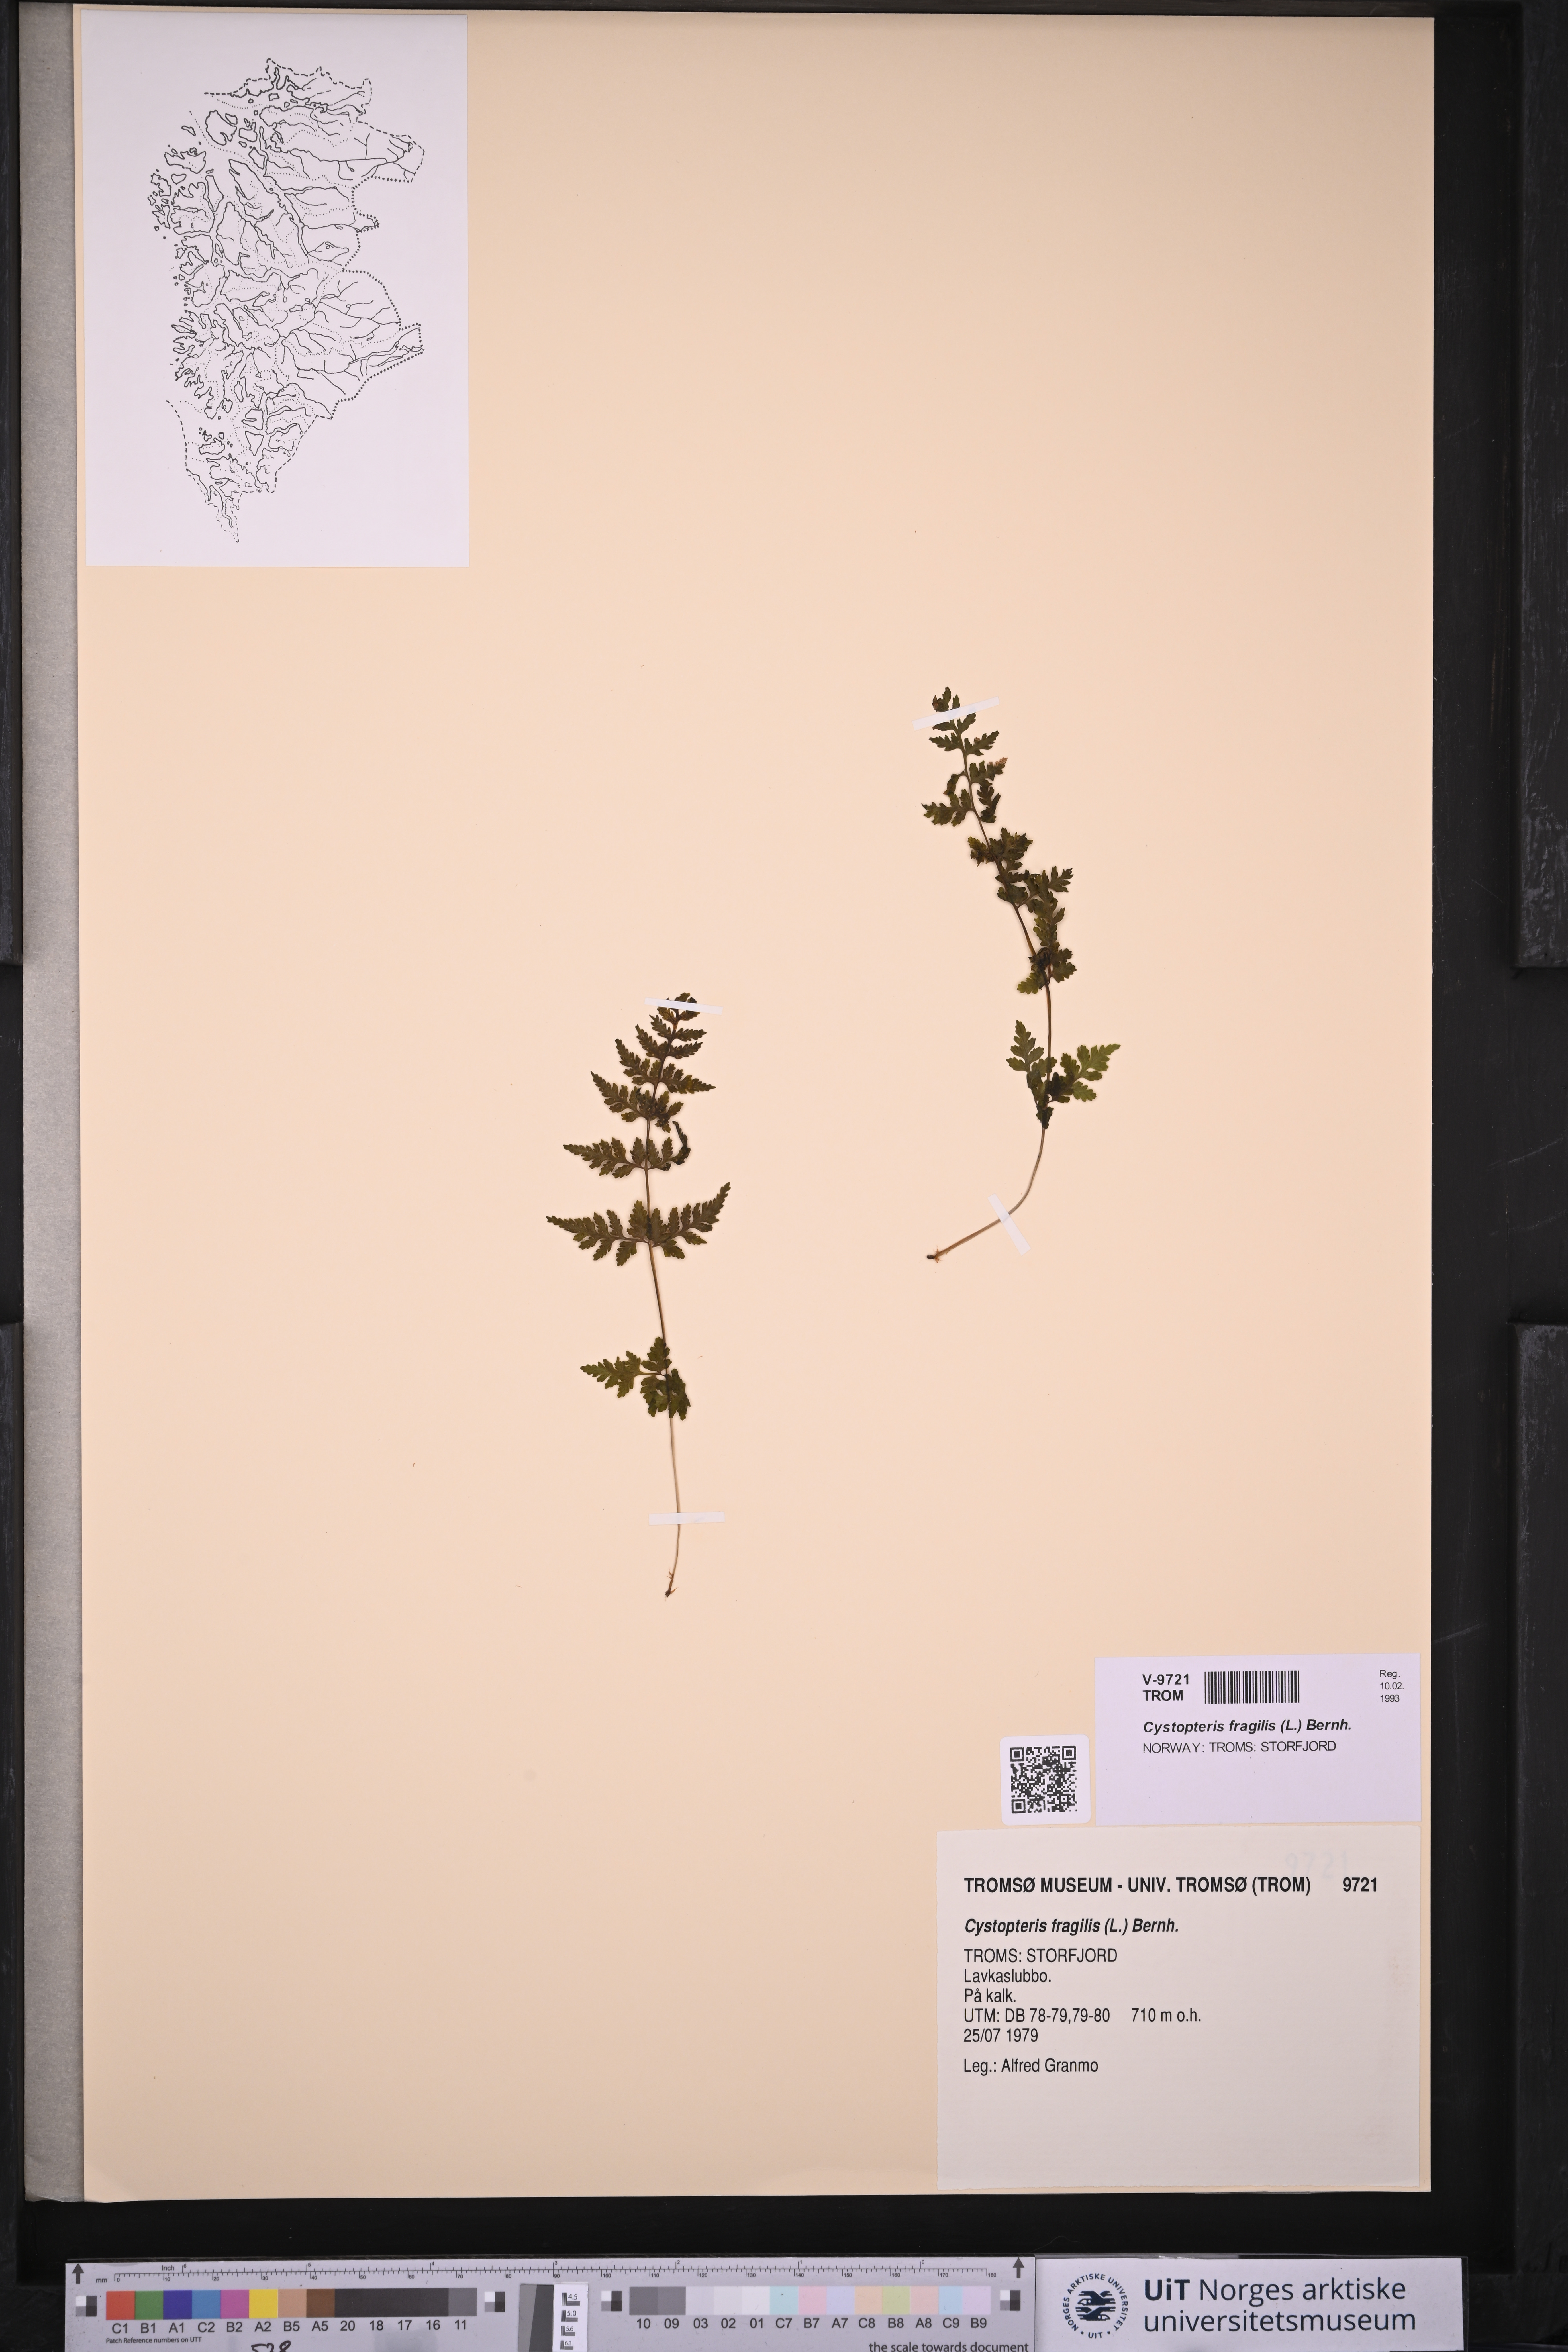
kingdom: Plantae
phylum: Tracheophyta
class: Polypodiopsida
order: Polypodiales
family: Cystopteridaceae
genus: Cystopteris
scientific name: Cystopteris fragilis
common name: Brittle bladder fern
